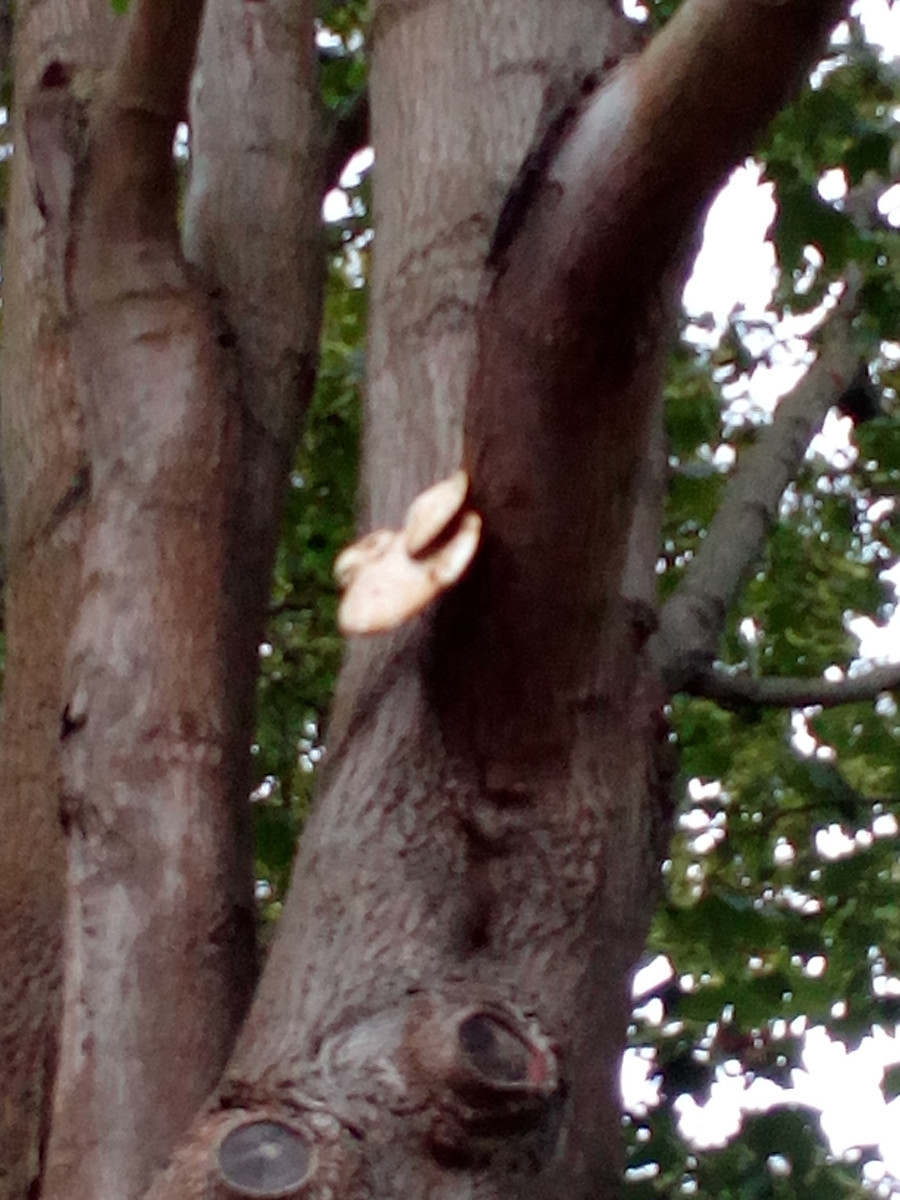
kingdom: Fungi
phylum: Basidiomycota
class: Agaricomycetes
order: Polyporales
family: Polyporaceae
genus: Cerioporus
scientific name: Cerioporus squamosus
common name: skællet stilkporesvamp
